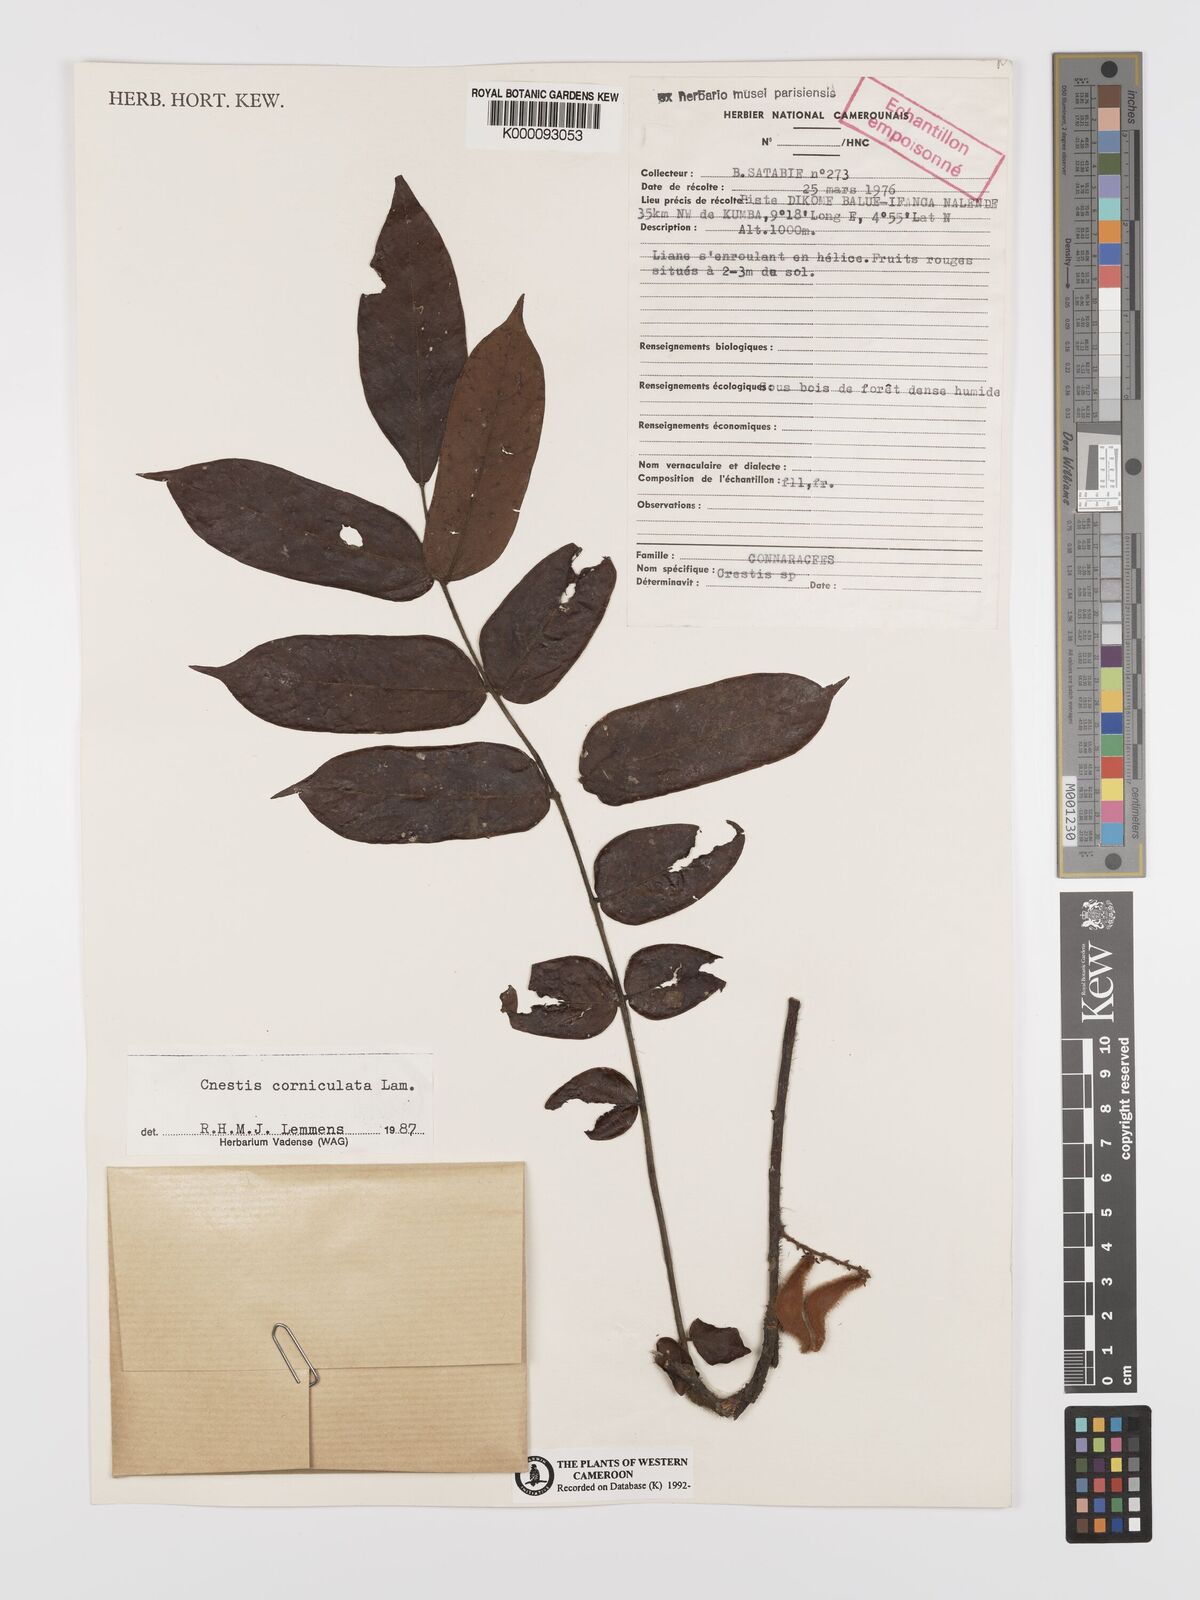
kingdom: Plantae
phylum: Tracheophyta
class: Magnoliopsida
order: Oxalidales
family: Connaraceae
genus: Cnestis
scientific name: Cnestis corniculata
